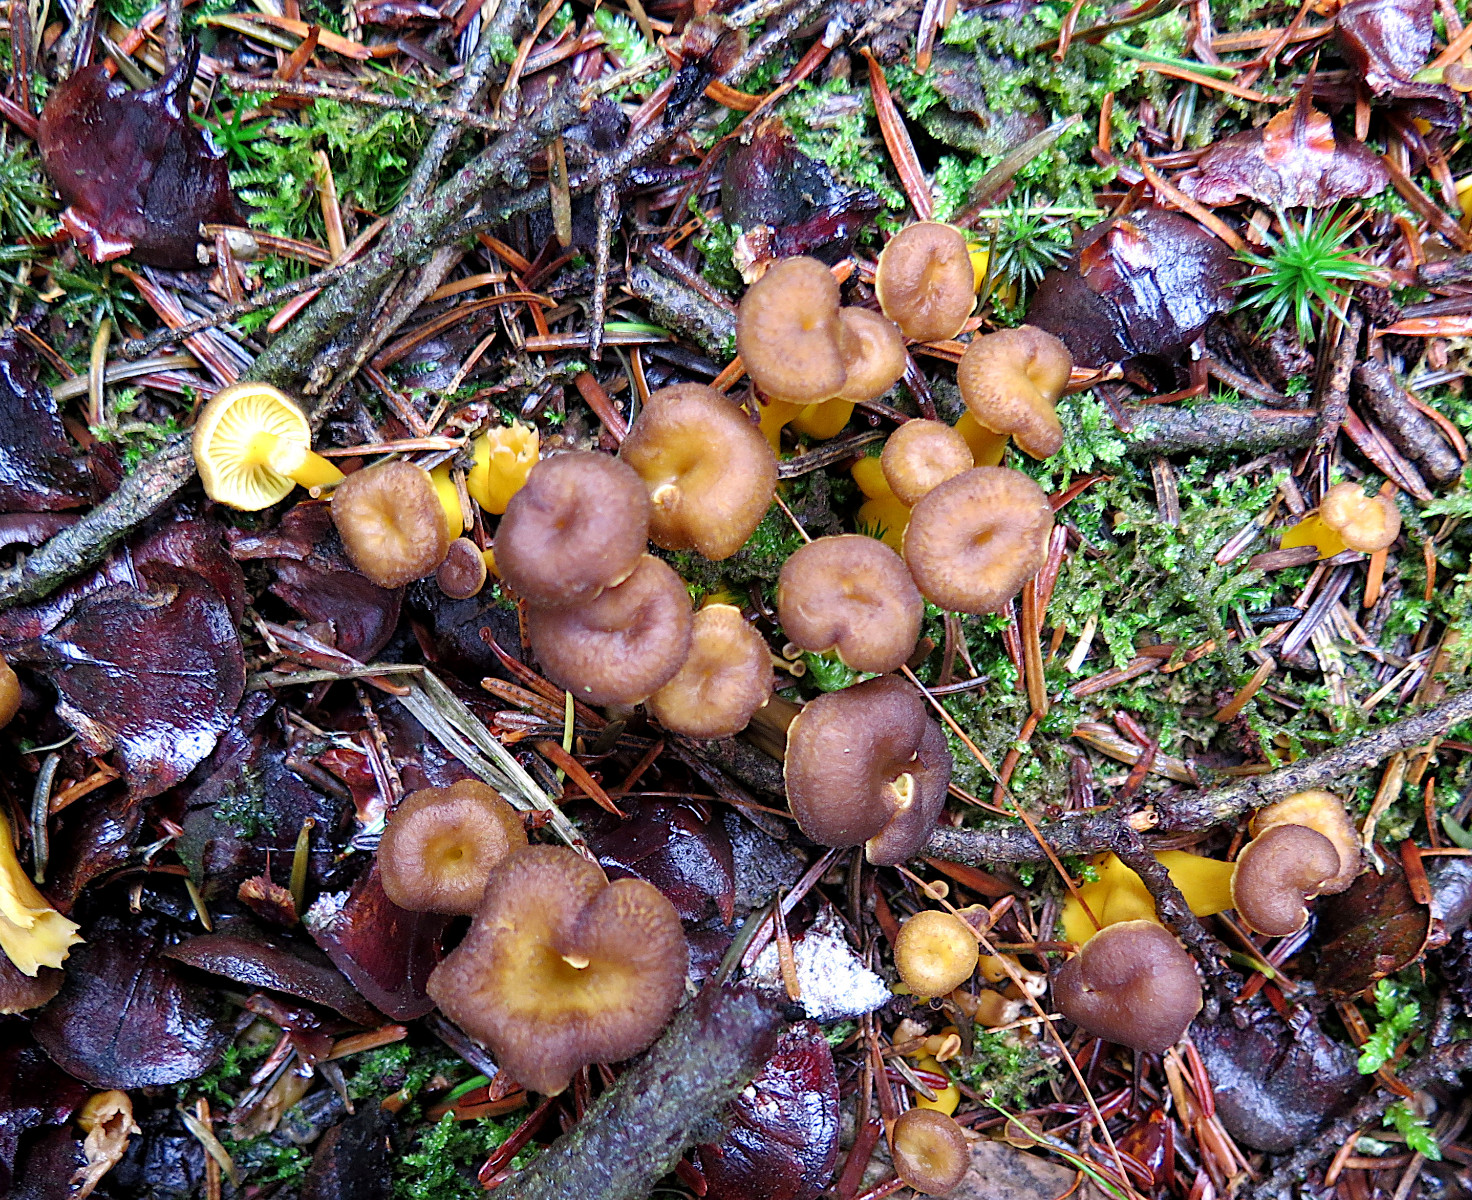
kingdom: Fungi
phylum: Basidiomycota
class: Agaricomycetes
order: Cantharellales
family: Hydnaceae
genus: Craterellus
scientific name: Craterellus tubaeformis
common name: tragt-kantarel
